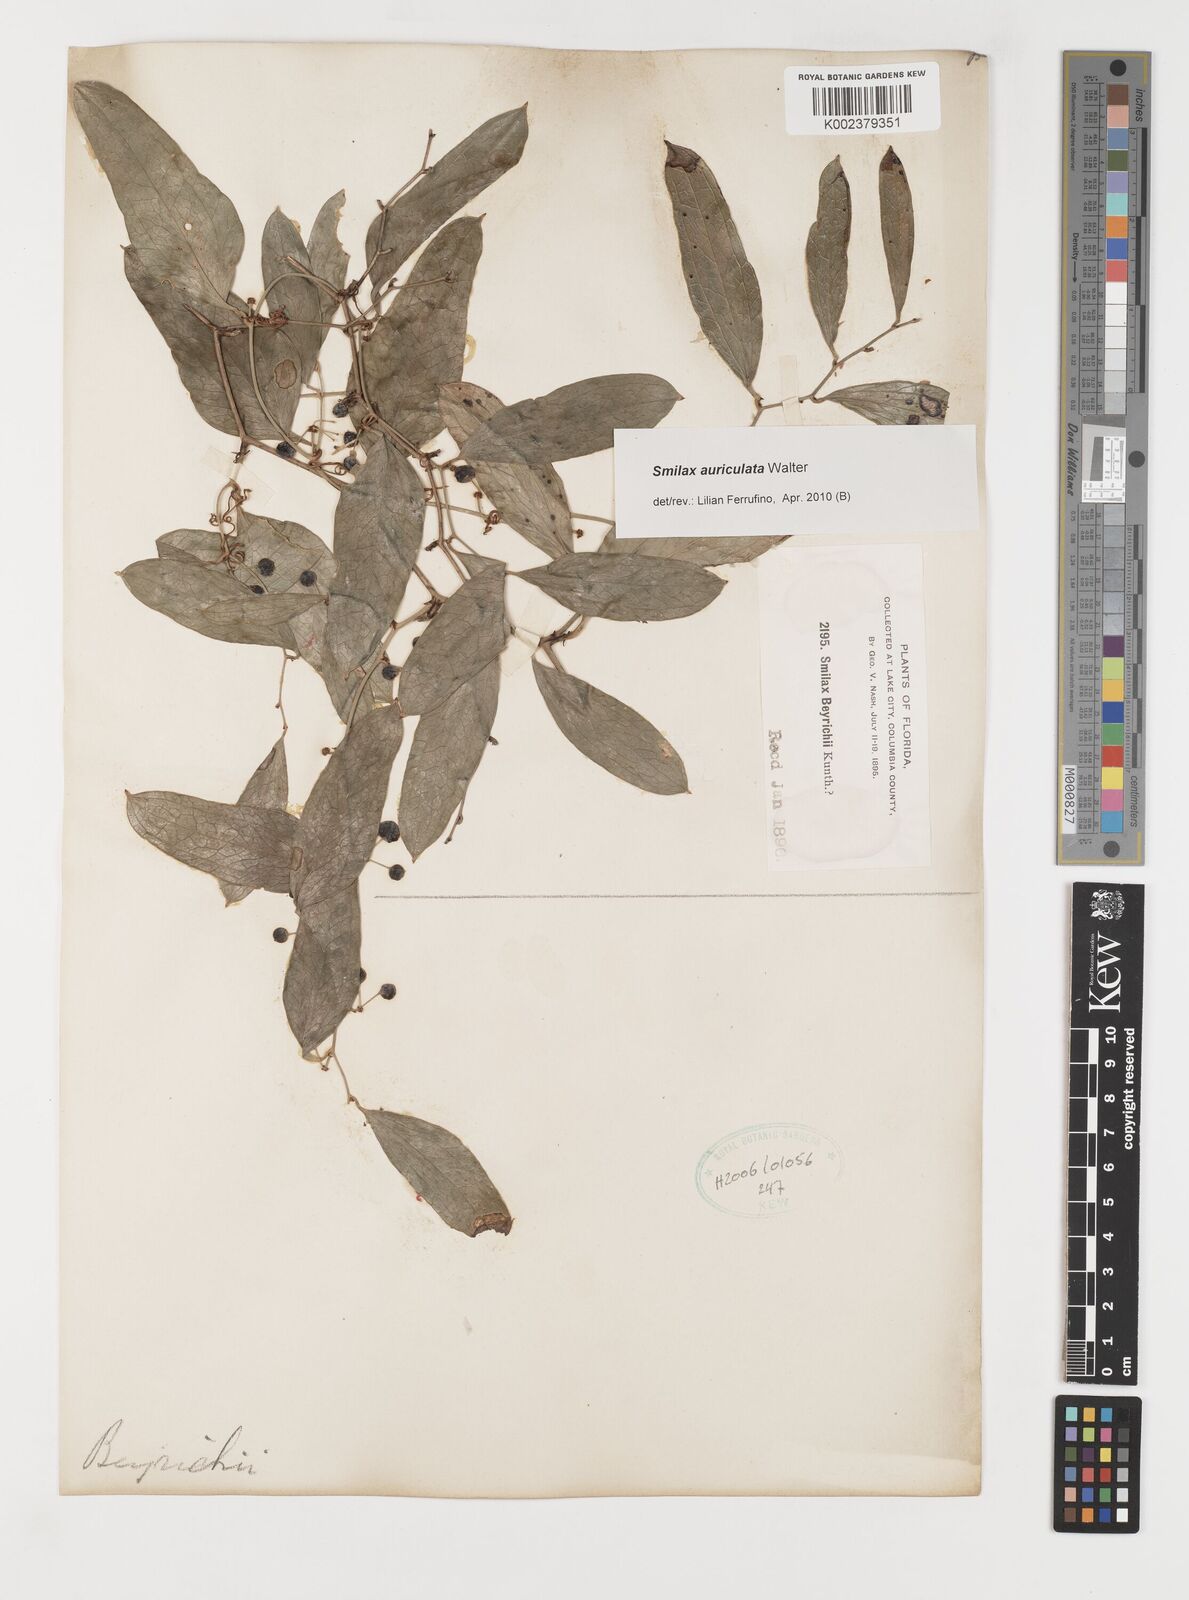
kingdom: Plantae
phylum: Tracheophyta
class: Liliopsida
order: Liliales
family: Smilacaceae
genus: Smilax
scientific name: Smilax auriculata
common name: Wild bamboo
